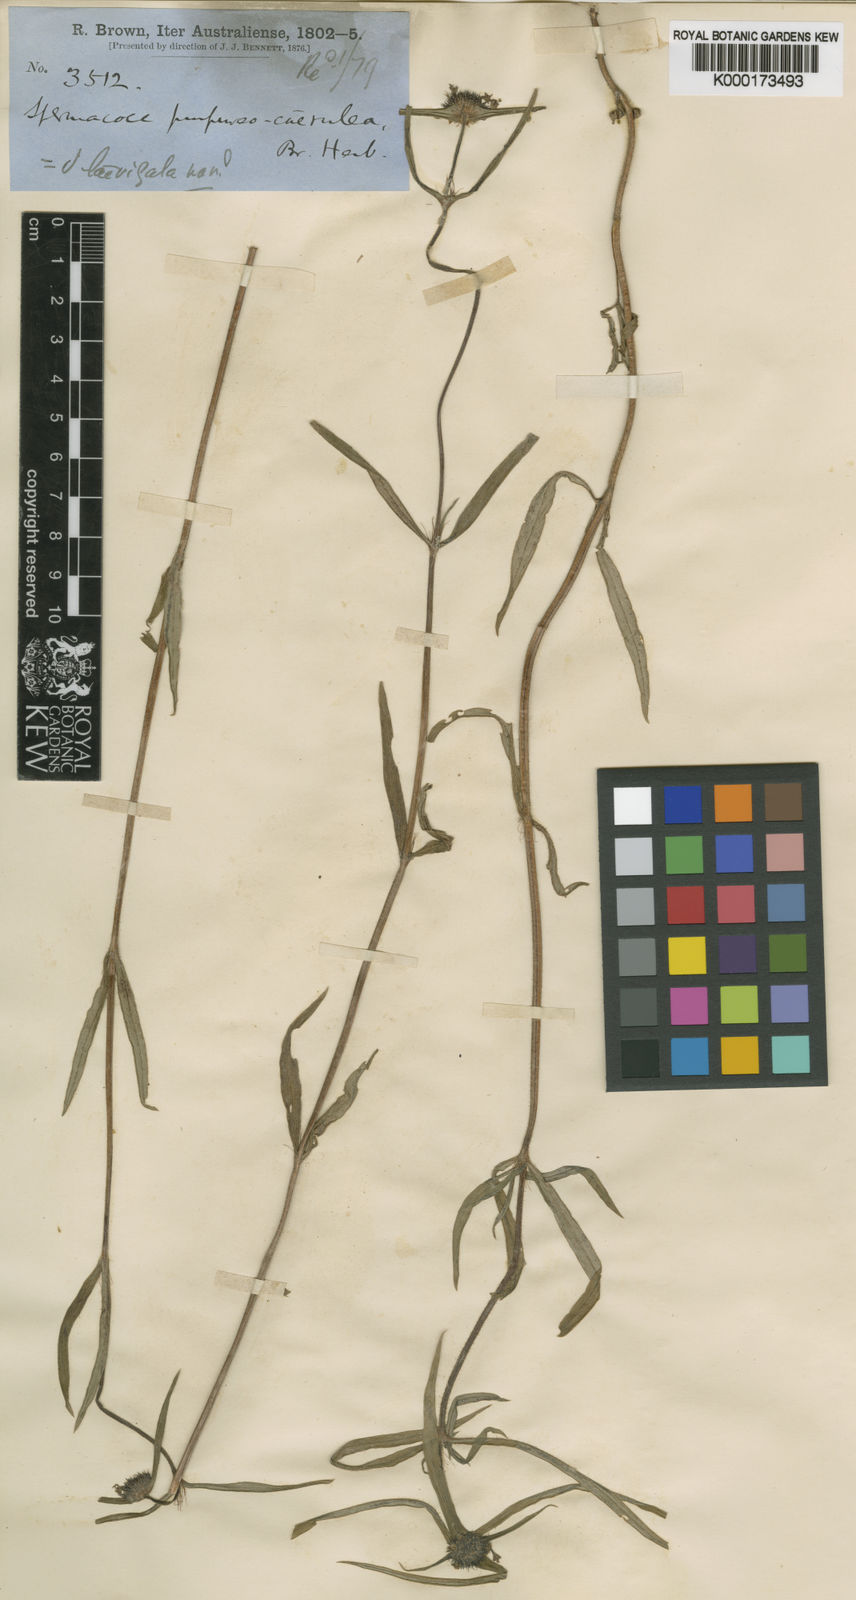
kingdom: Plantae
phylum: Tracheophyta
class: Magnoliopsida
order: Gentianales
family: Rubiaceae
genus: Spermacoce
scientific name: Spermacoce elaiosoma
